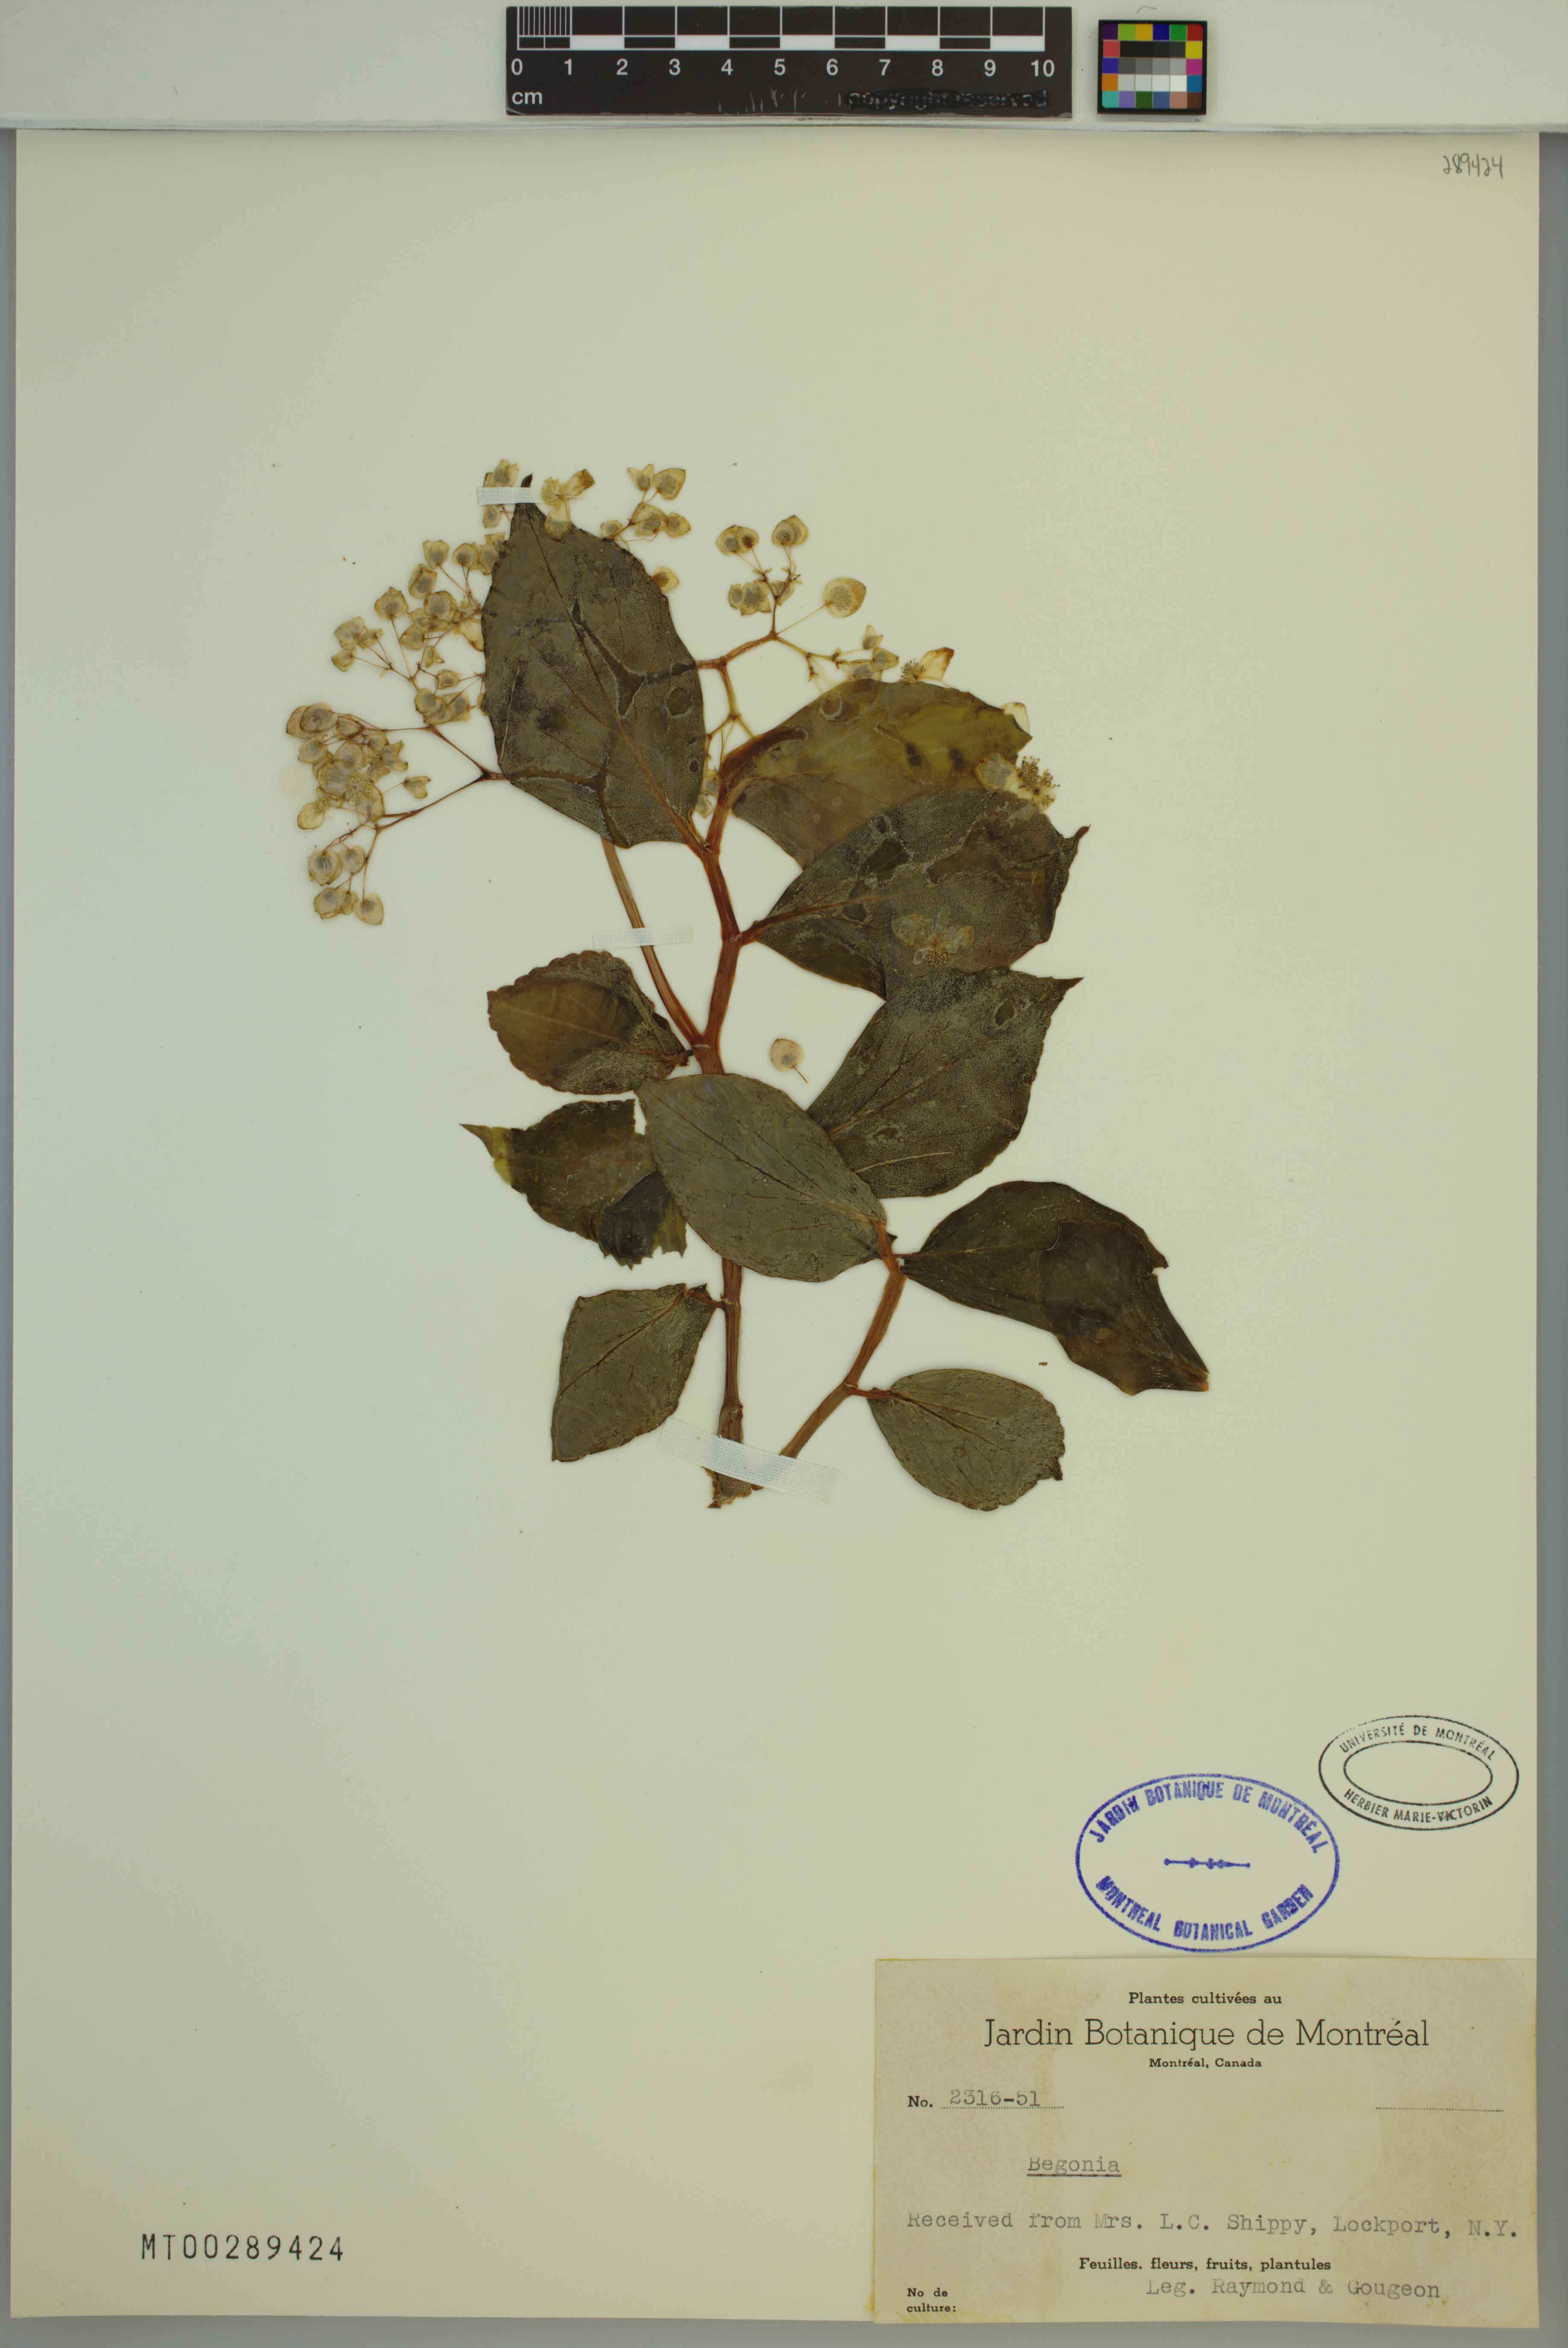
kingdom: Plantae
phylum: Tracheophyta
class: Magnoliopsida
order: Cucurbitales
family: Begoniaceae
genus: Begonia
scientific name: Begonia
